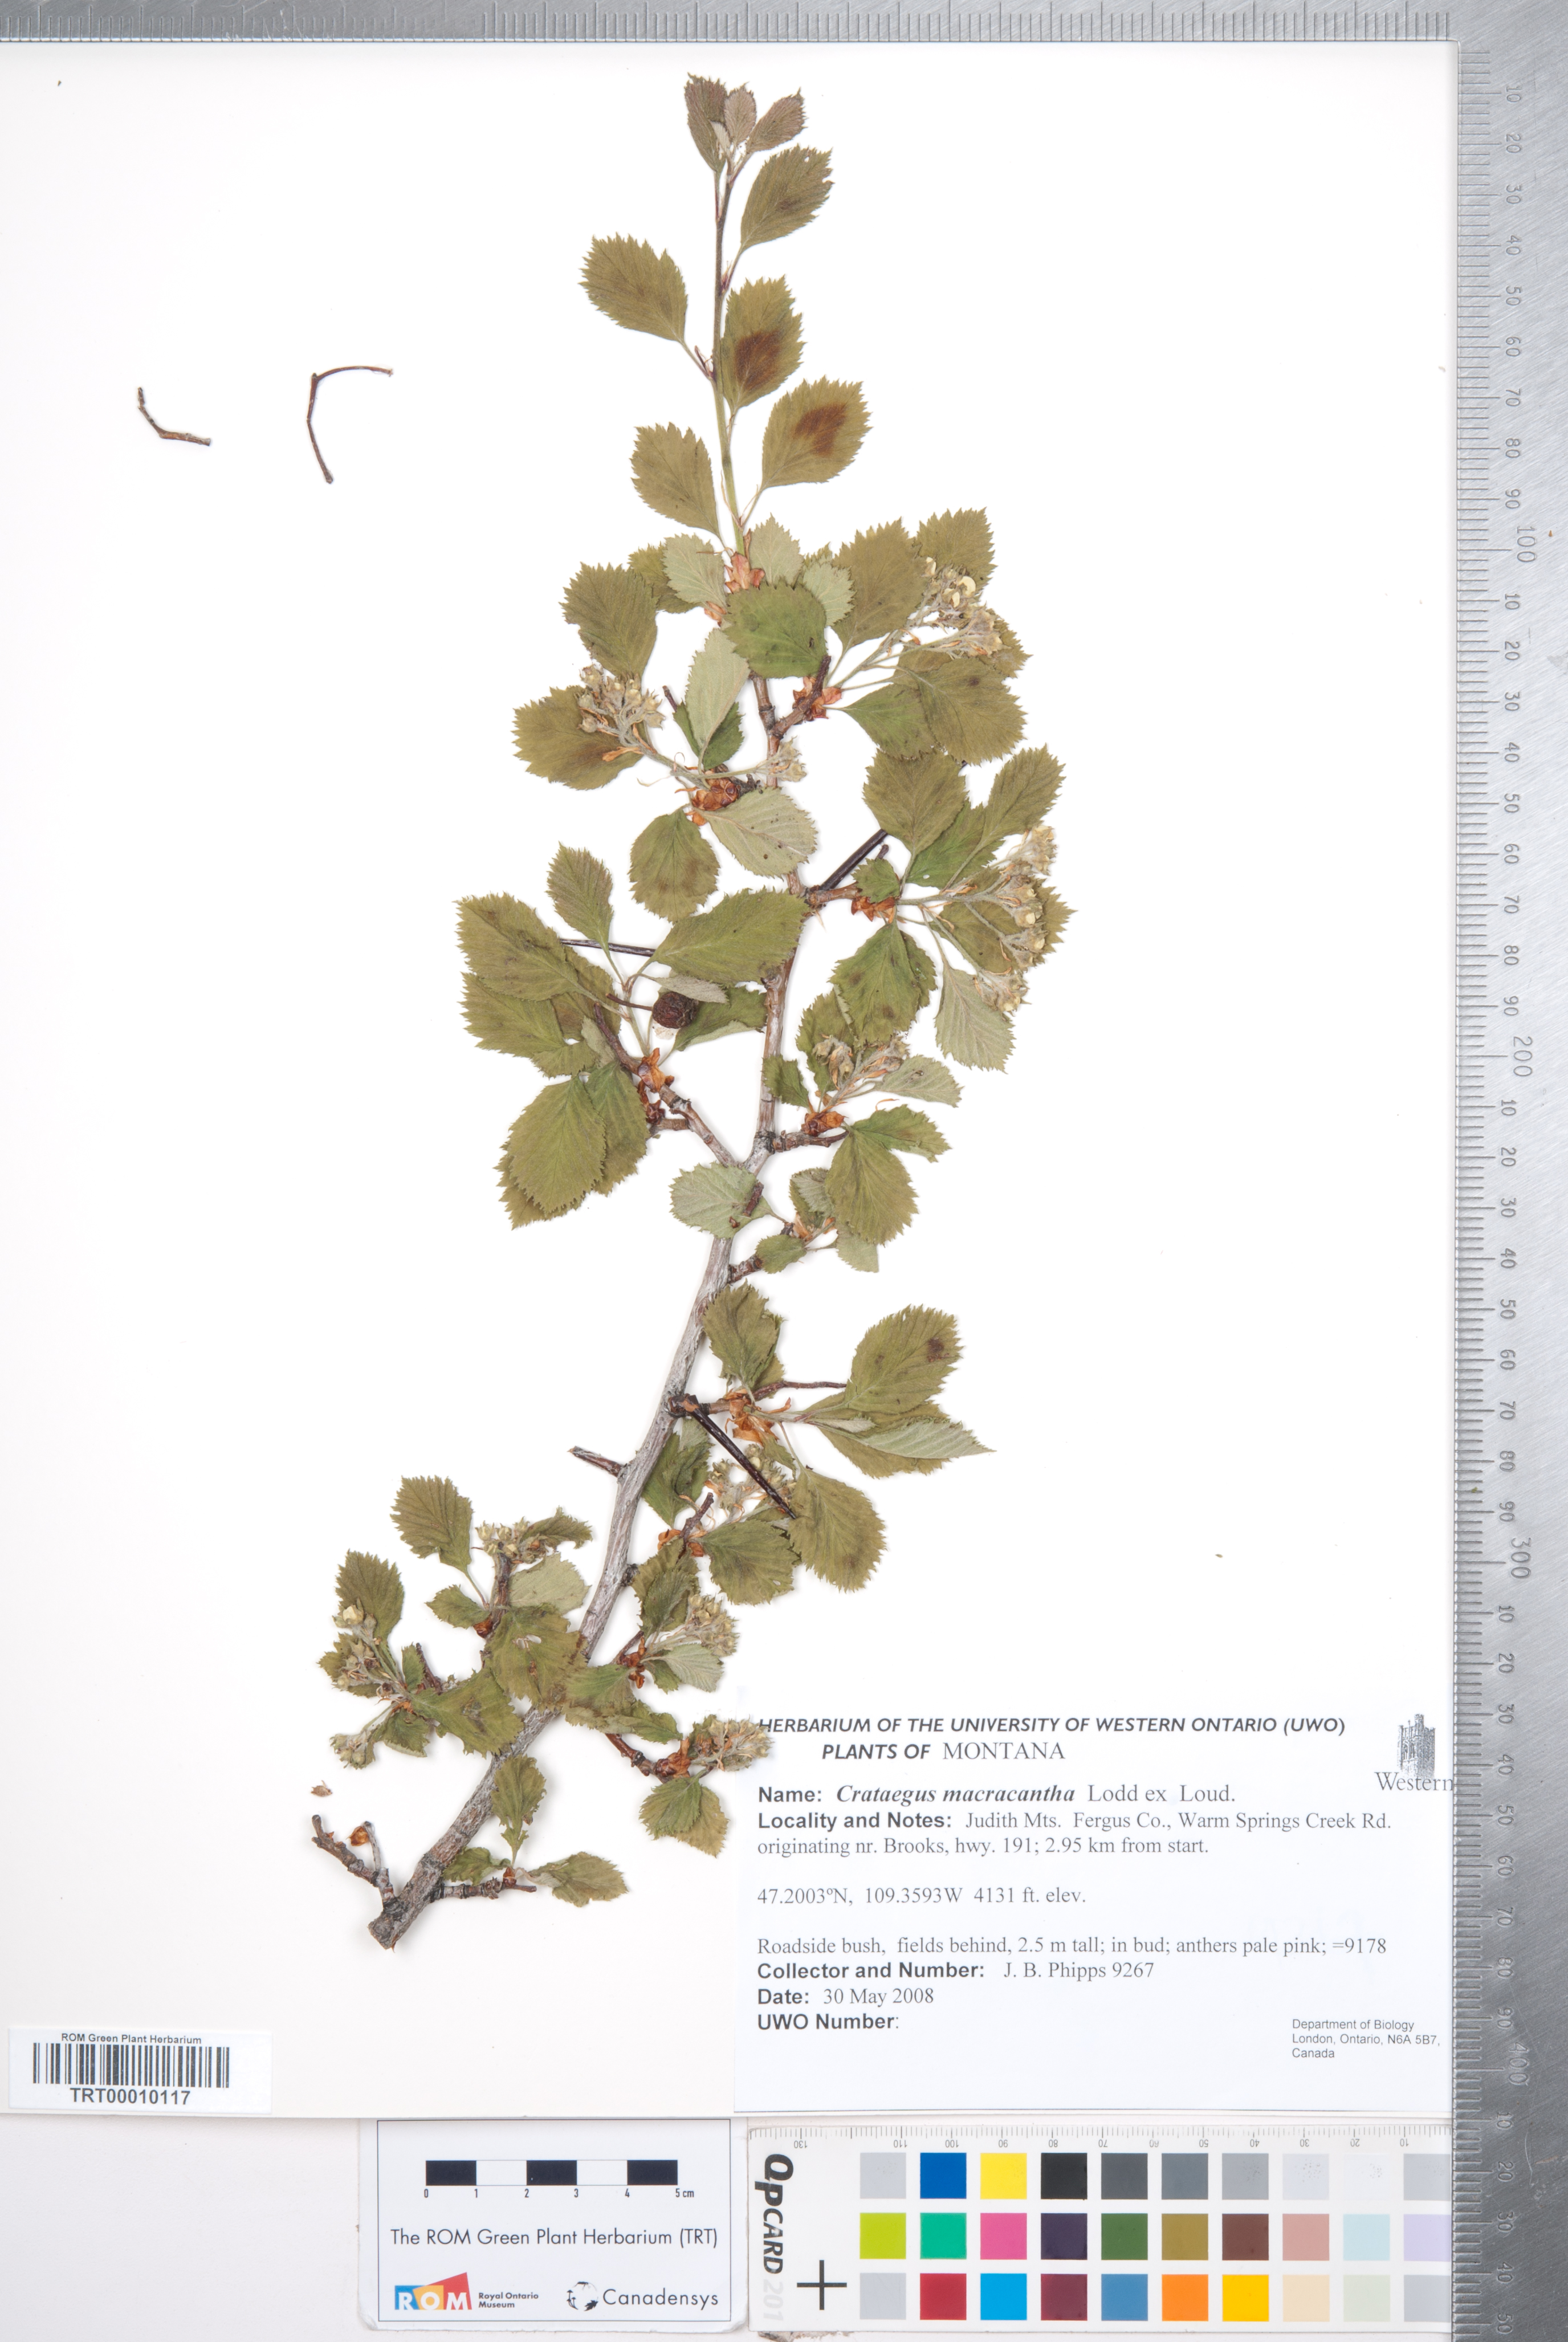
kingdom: Plantae
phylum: Tracheophyta
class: Magnoliopsida
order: Rosales
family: Rosaceae
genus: Crataegus
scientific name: Crataegus macracantha
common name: Large-thorn hawthorn
